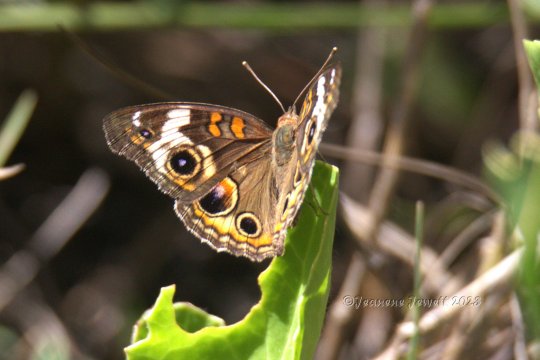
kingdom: Animalia
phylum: Arthropoda
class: Insecta
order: Lepidoptera
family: Nymphalidae
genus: Junonia
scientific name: Junonia coenia
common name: Common Buckeye
